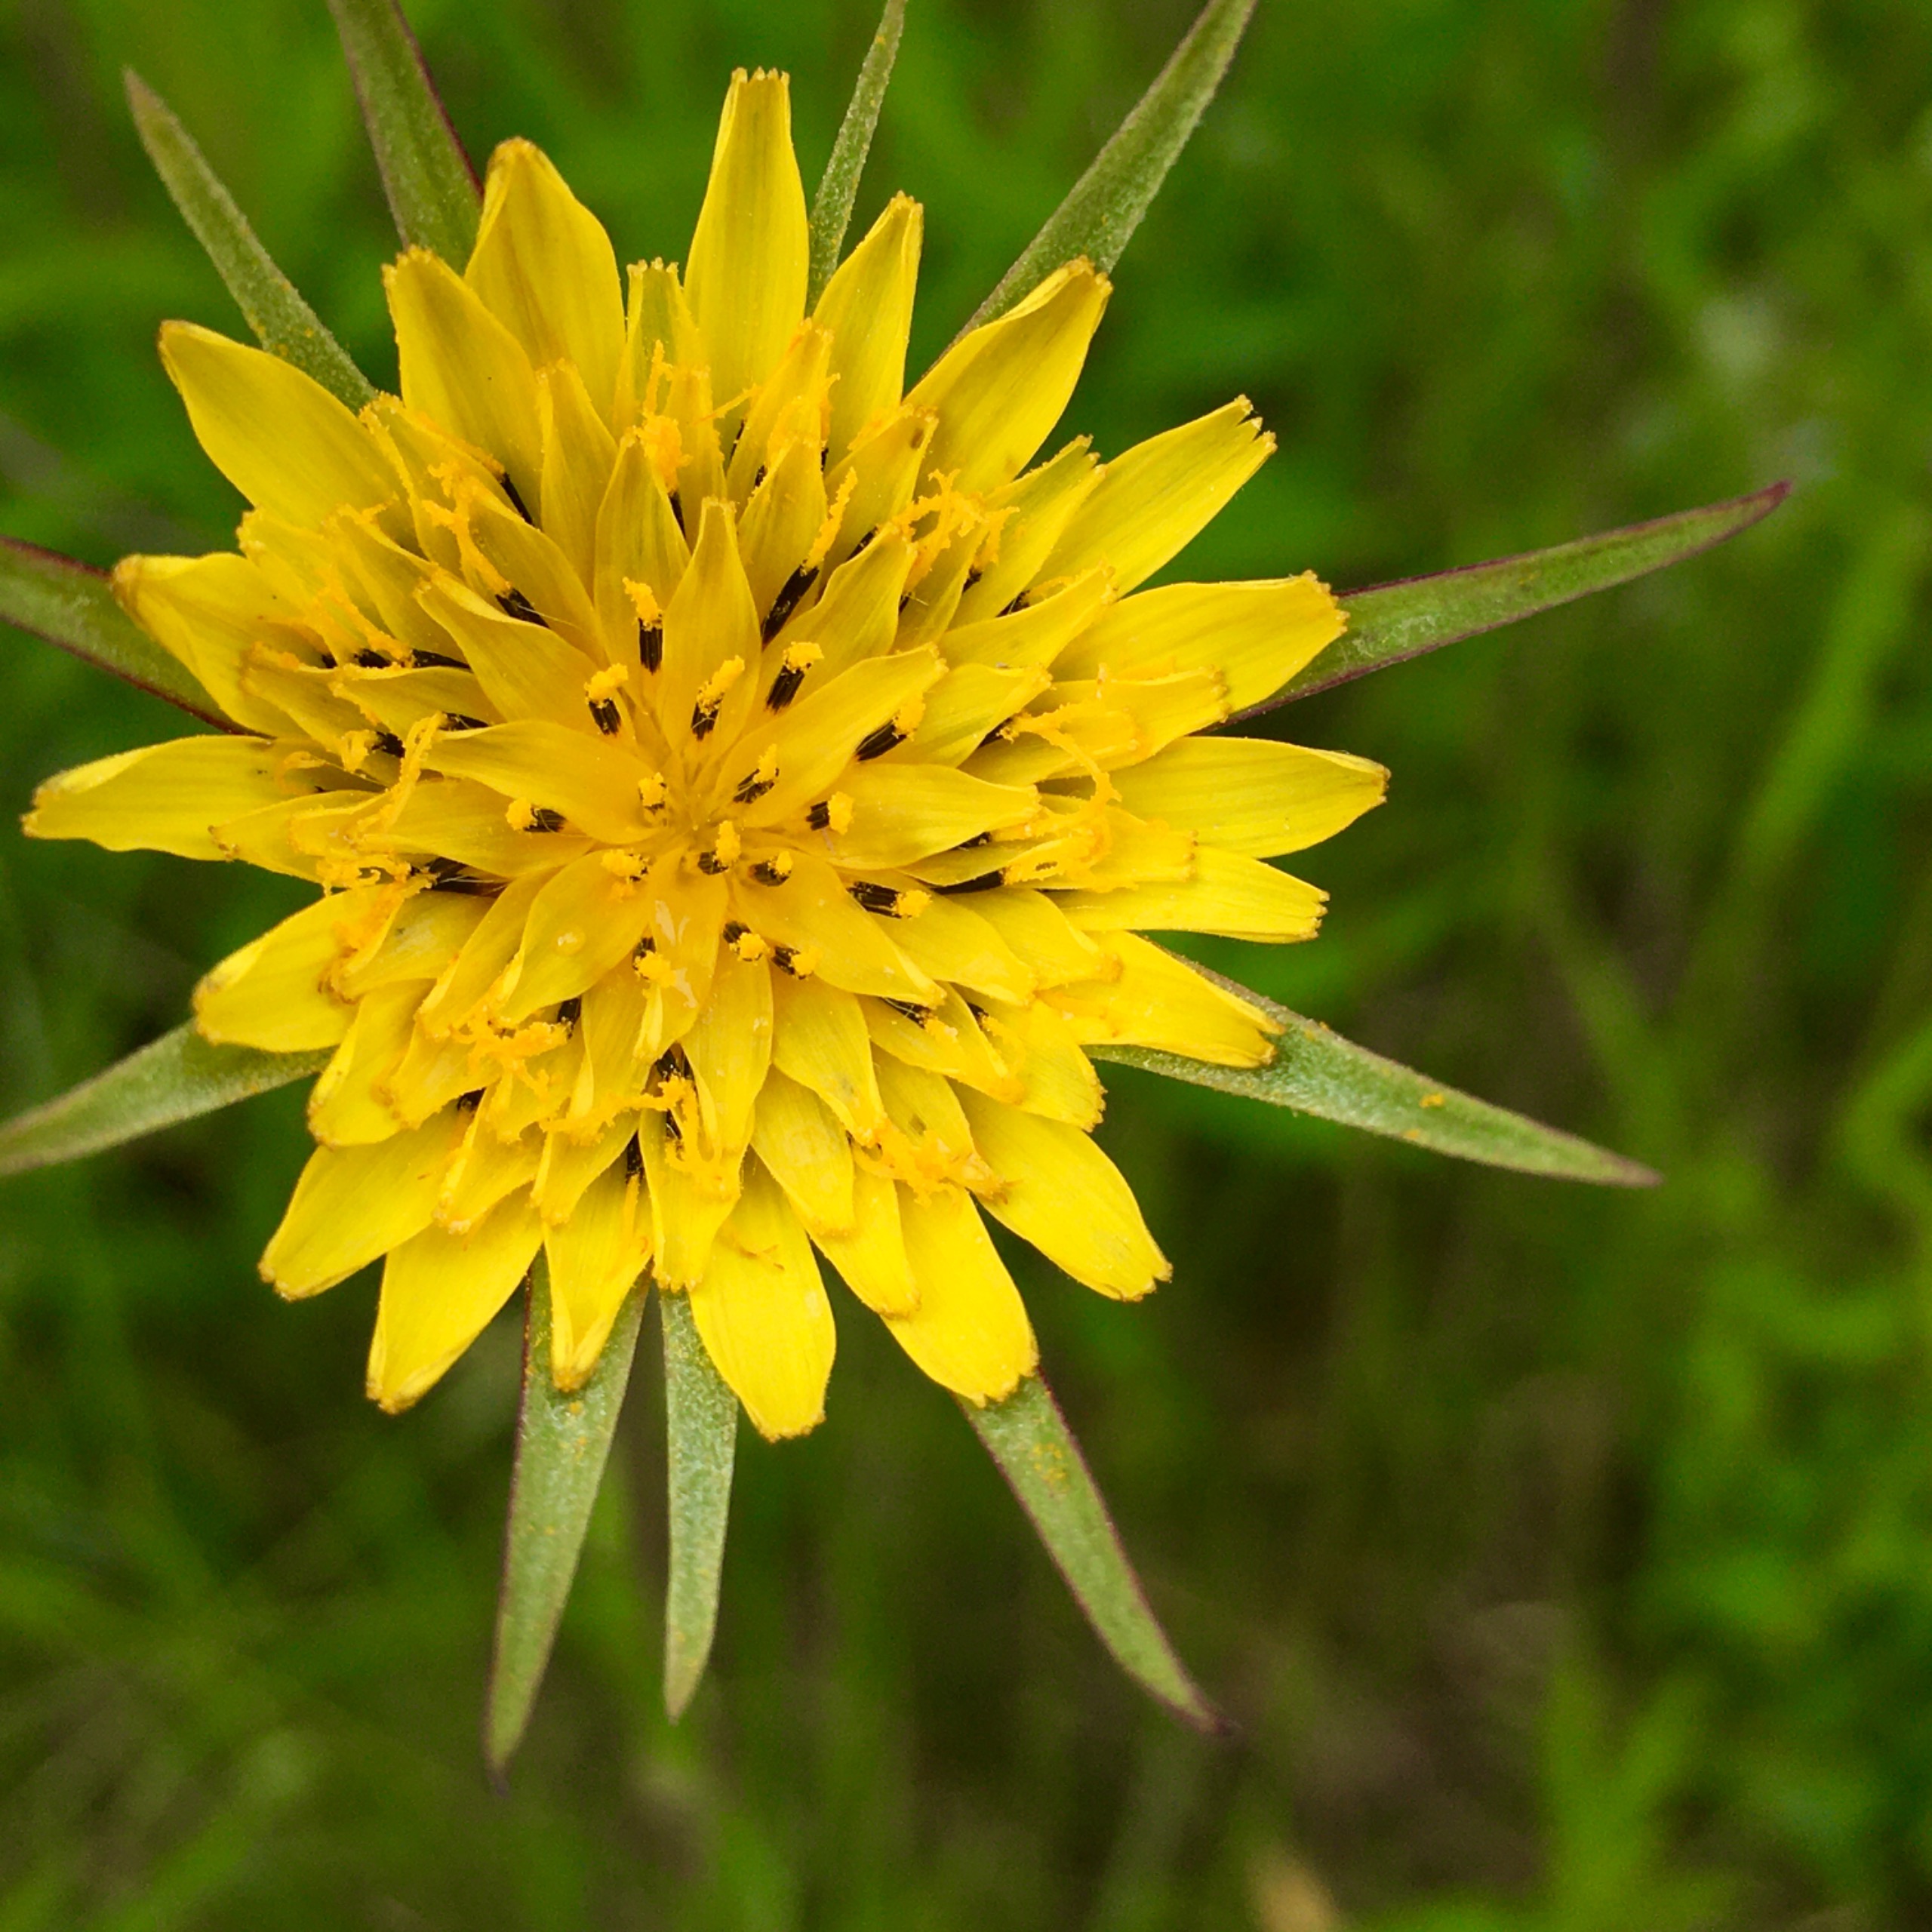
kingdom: Plantae
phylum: Tracheophyta
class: Magnoliopsida
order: Asterales
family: Asteraceae
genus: Tragopogon
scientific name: Tragopogon minor
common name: Småkronet gedeskæg
